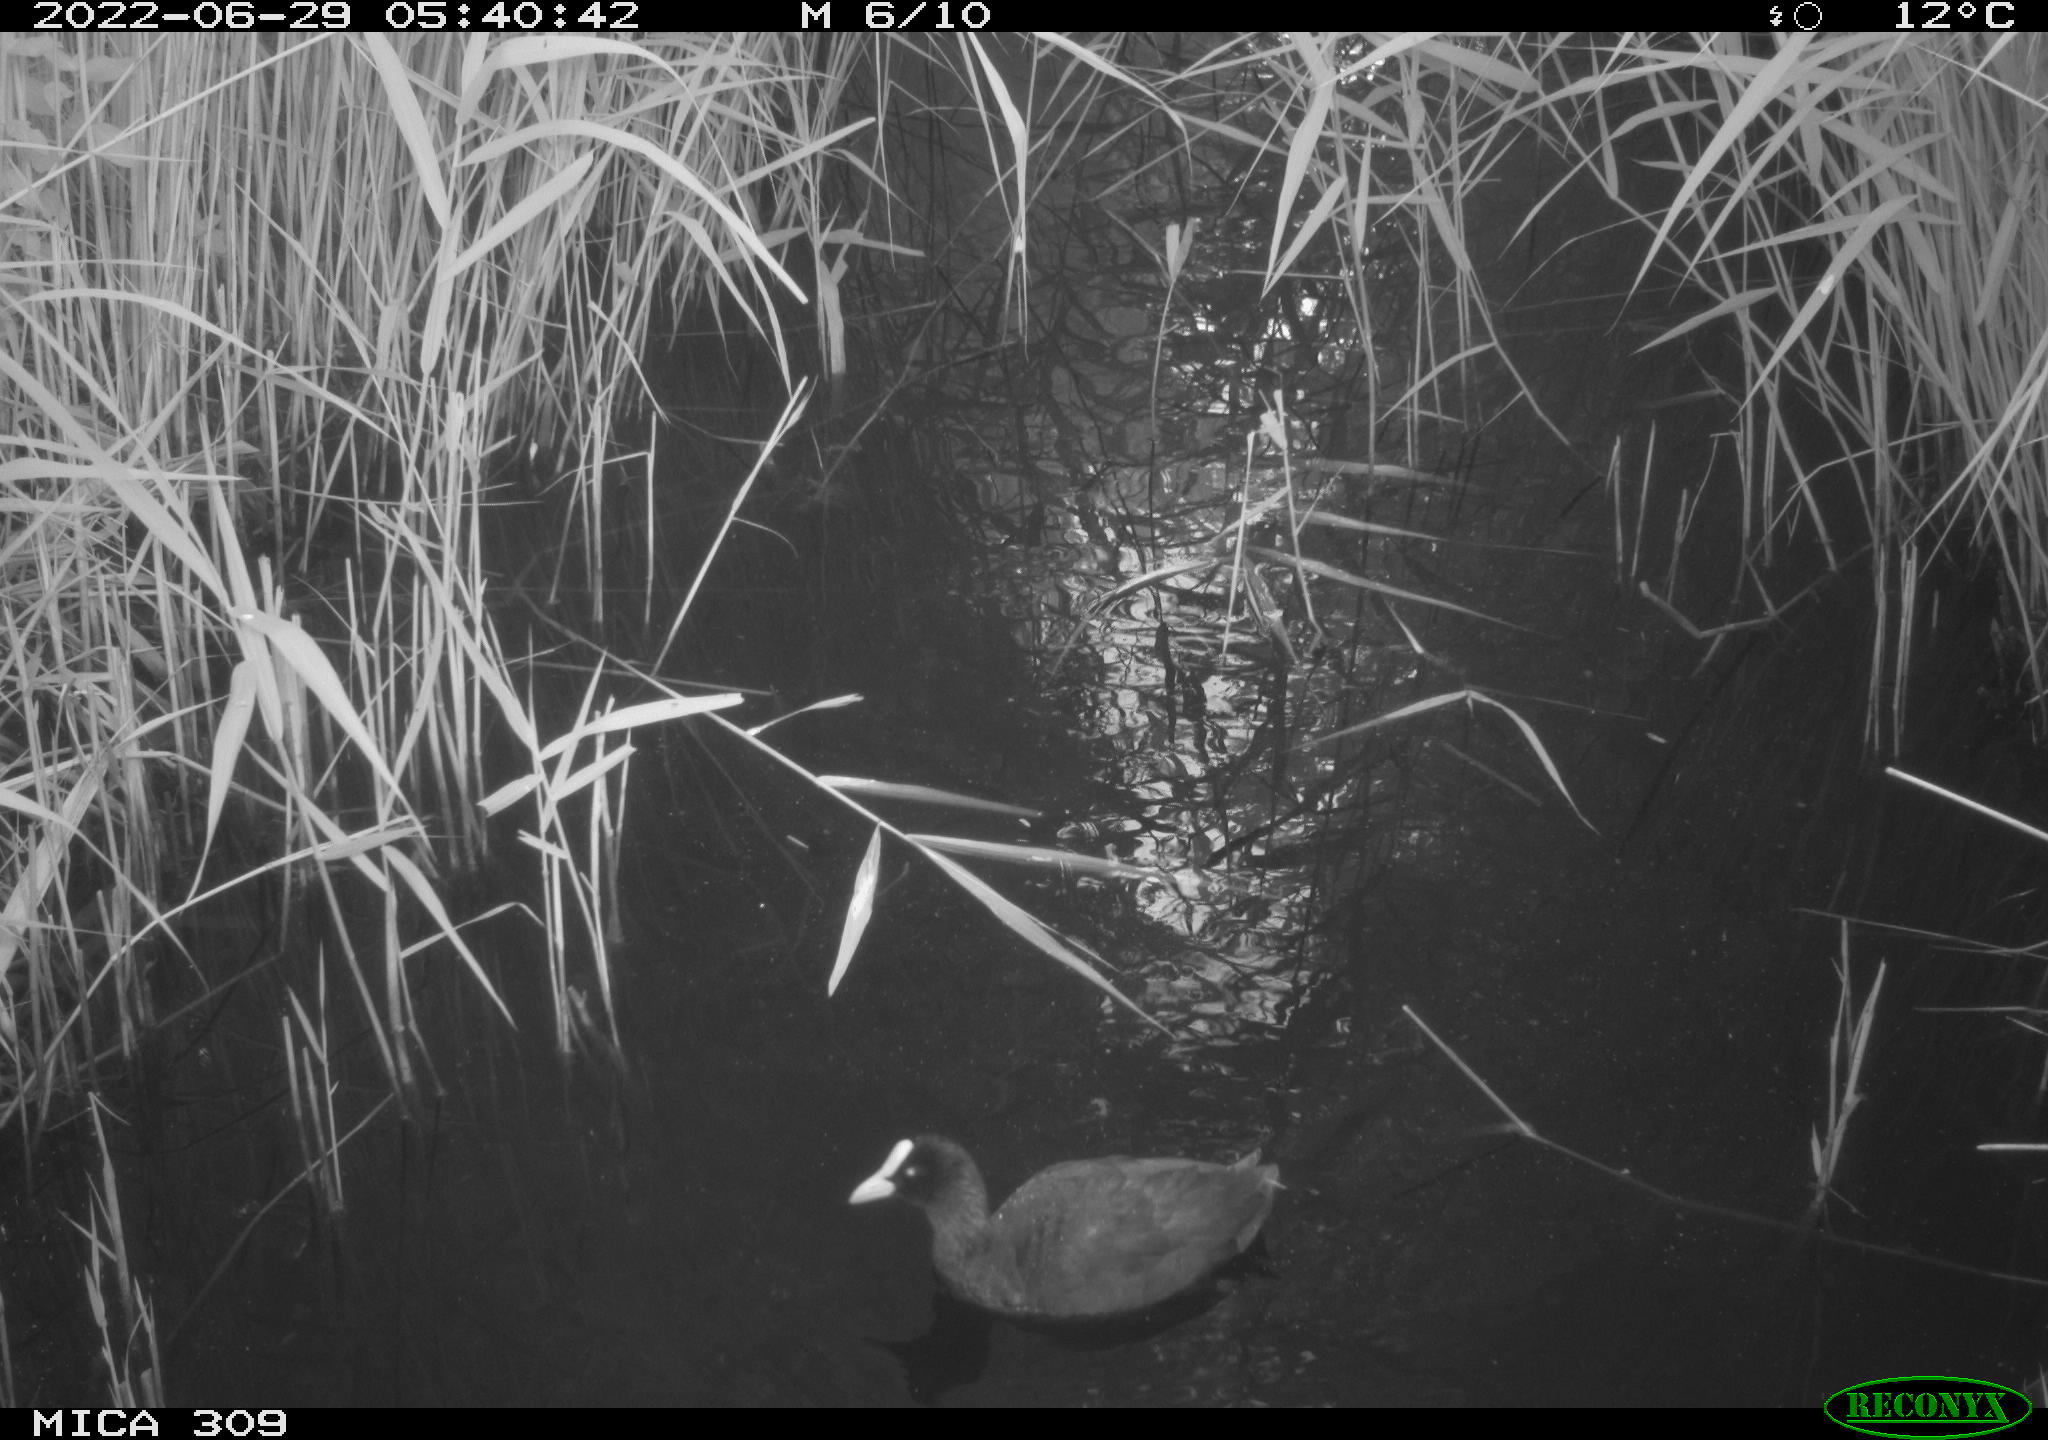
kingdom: Animalia
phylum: Chordata
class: Aves
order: Gruiformes
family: Rallidae
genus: Fulica
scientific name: Fulica atra
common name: Eurasian coot
